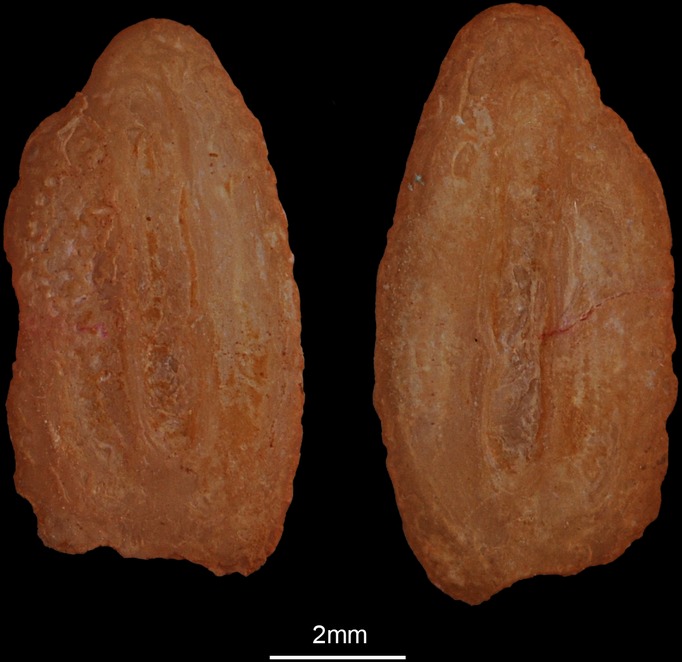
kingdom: Animalia
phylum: Chordata
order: Scorpaeniformes
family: Triglidae
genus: Eutrigla
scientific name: Eutrigla gurnardus
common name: Grey gurnard
